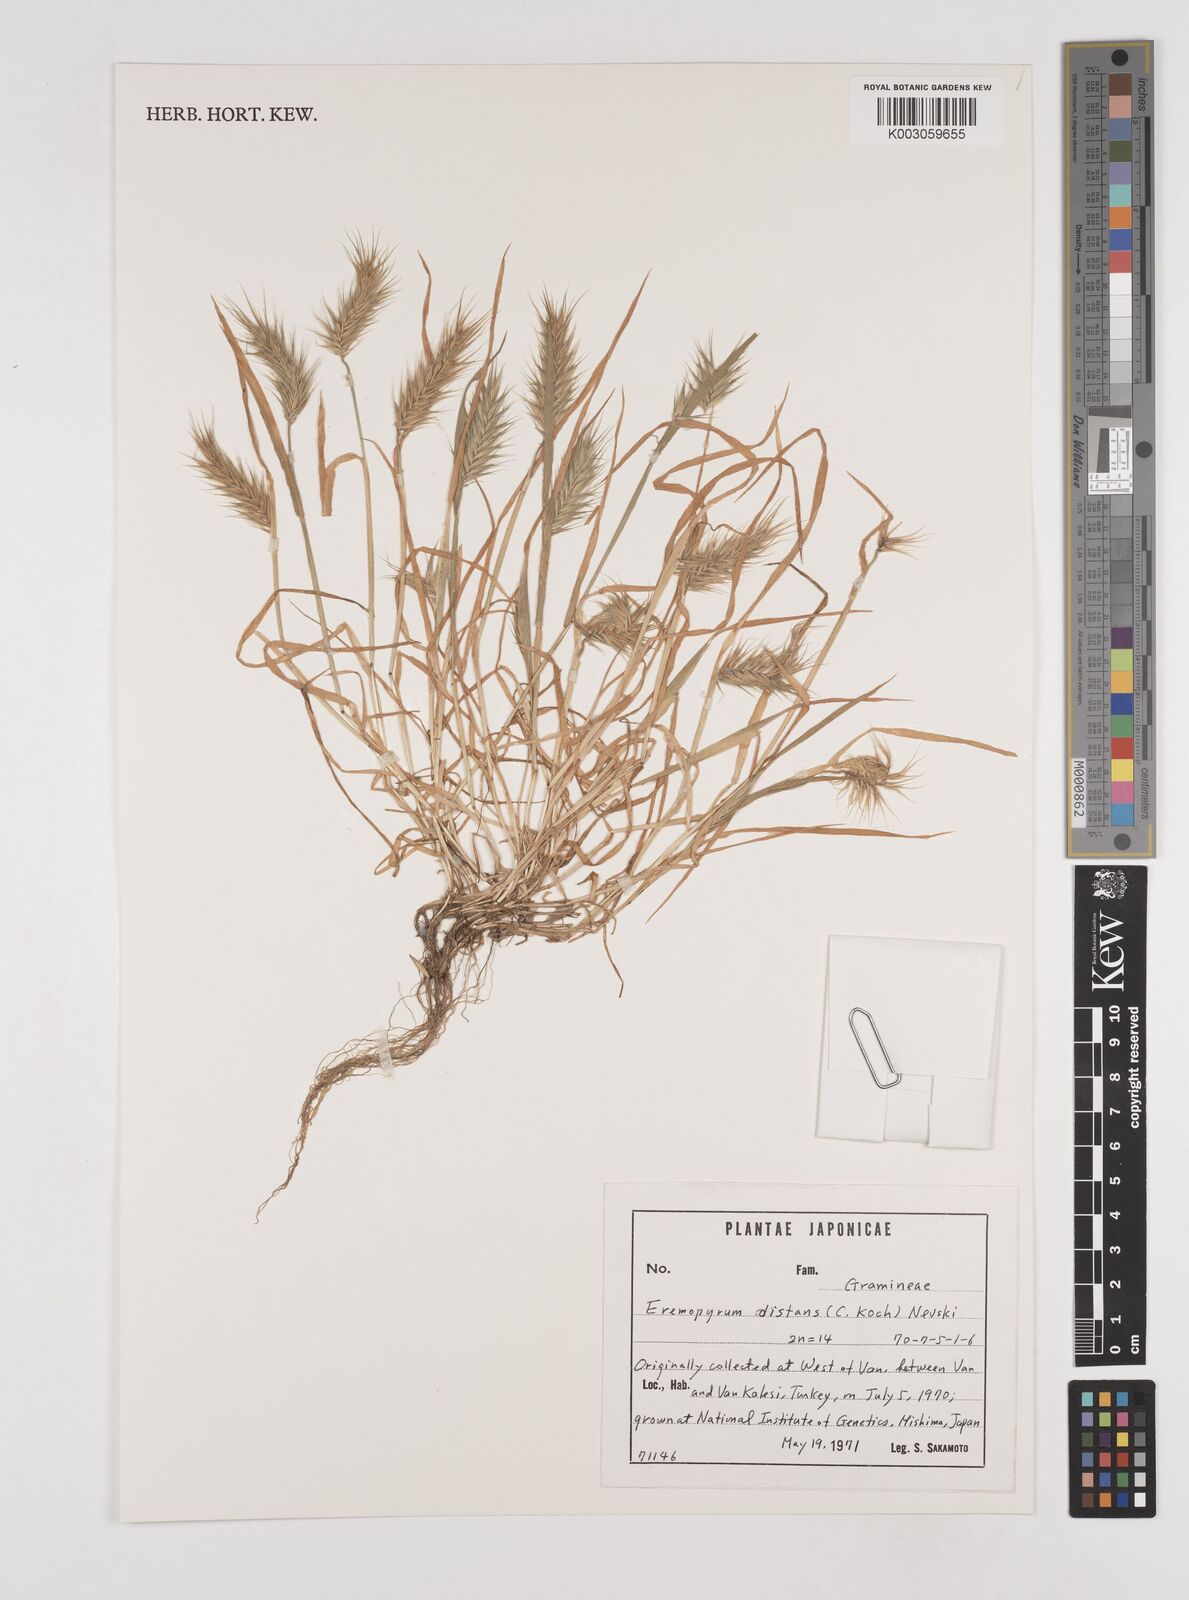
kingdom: Plantae
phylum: Tracheophyta
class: Liliopsida
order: Poales
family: Poaceae
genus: Eremopyrum
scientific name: Eremopyrum distans
